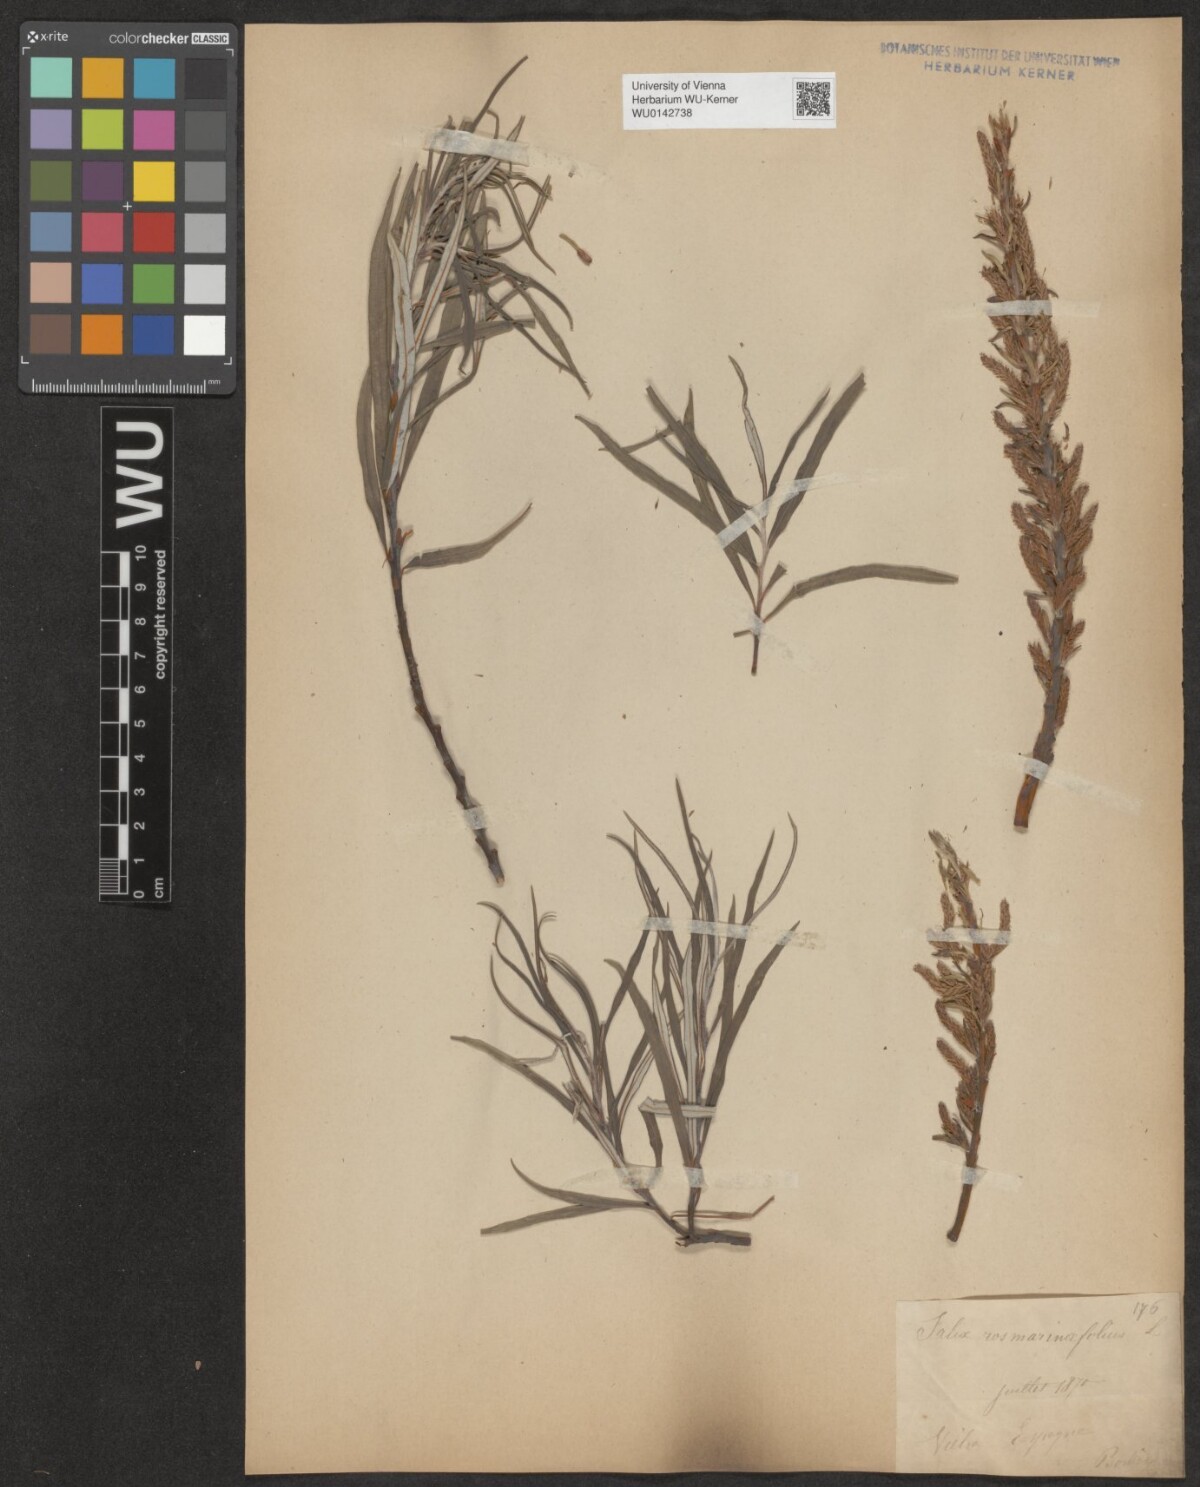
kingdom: Plantae
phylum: Tracheophyta
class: Magnoliopsida
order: Malpighiales
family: Salicaceae
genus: Salix
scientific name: Salix eleagnos
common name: Elaeagnus willow
